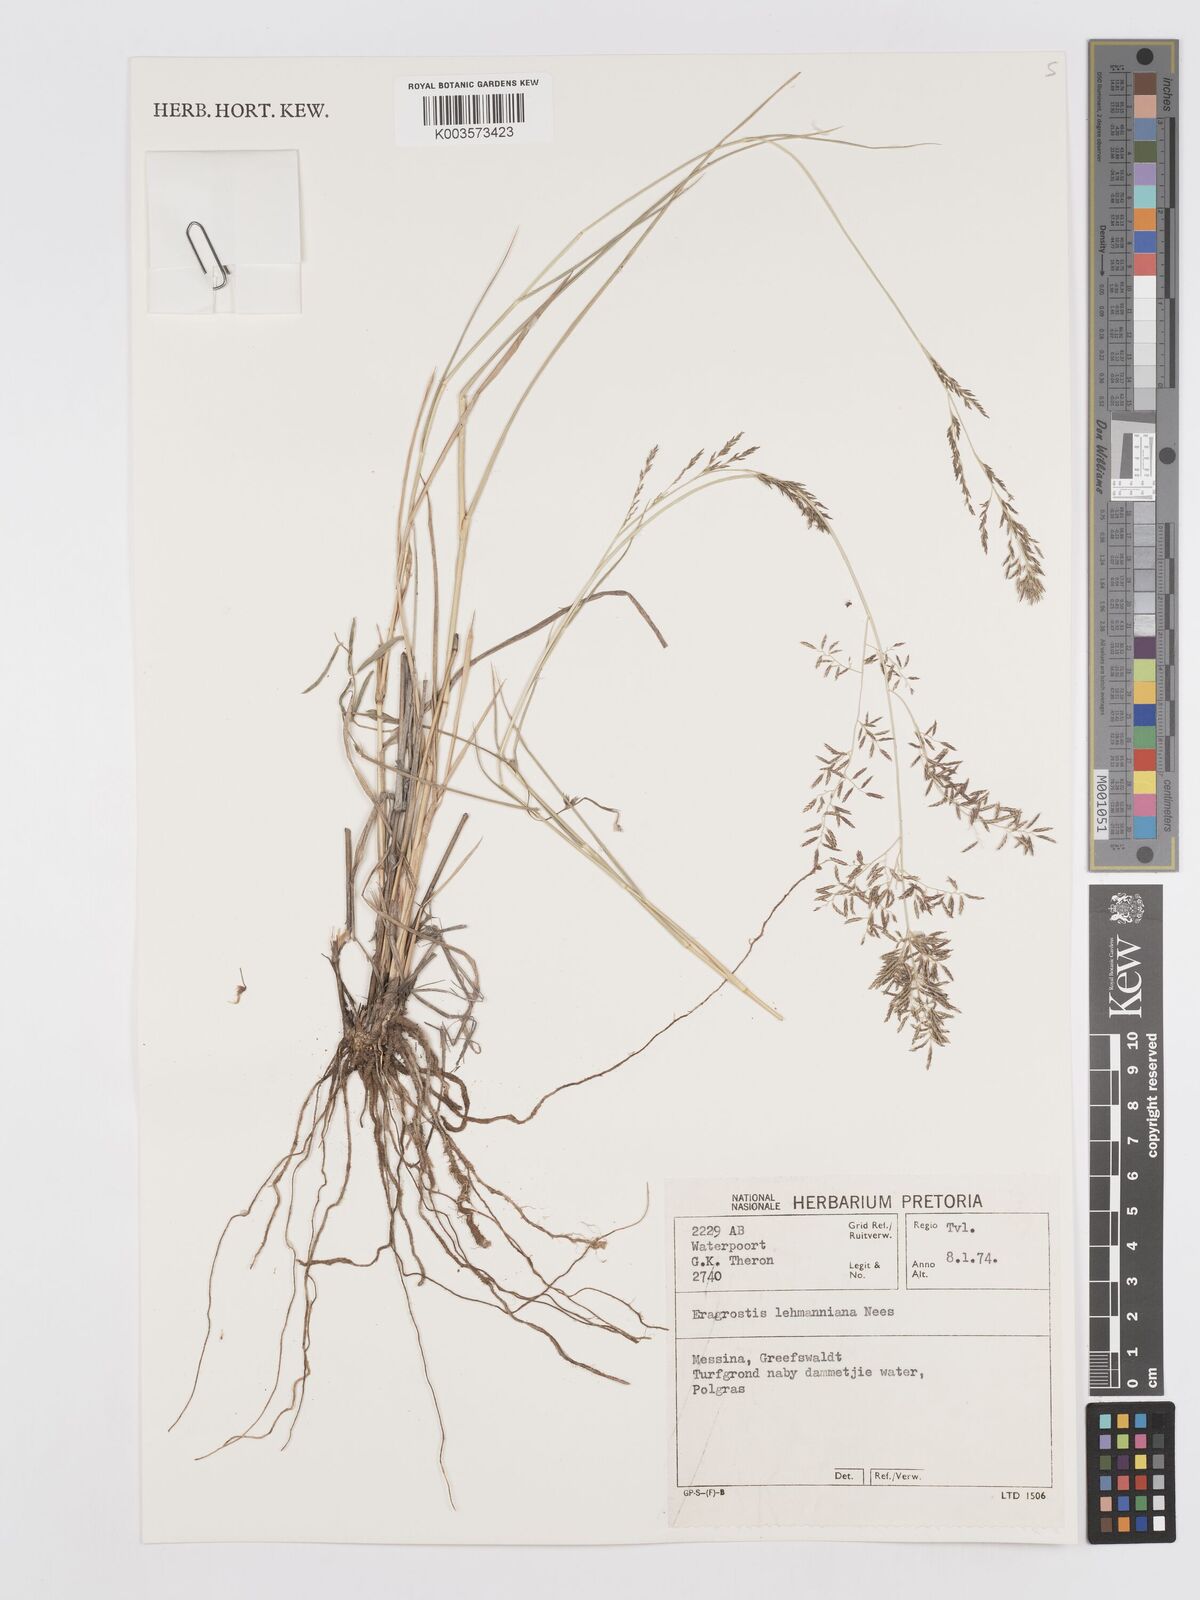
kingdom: Plantae
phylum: Tracheophyta
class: Liliopsida
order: Poales
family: Poaceae
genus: Eragrostis
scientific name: Eragrostis lehmanniana
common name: Lehmann lovegrass
